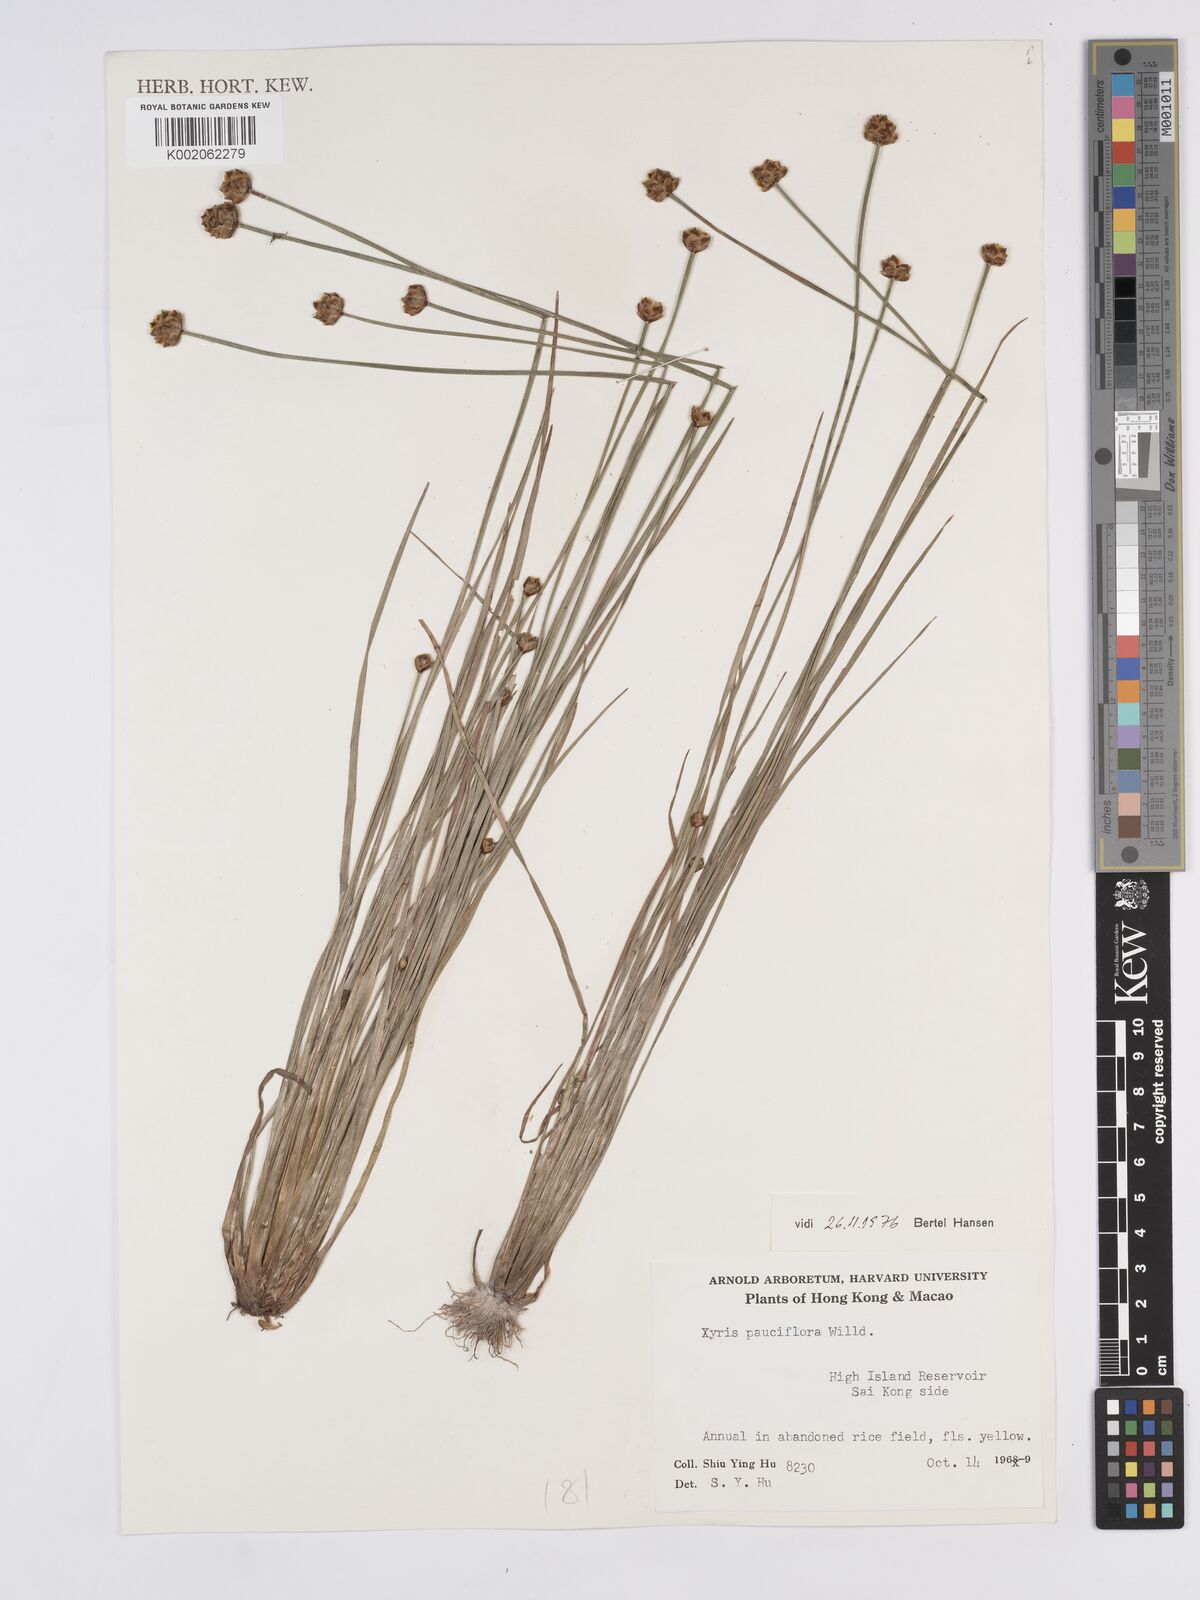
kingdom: Plantae
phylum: Tracheophyta
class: Liliopsida
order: Poales
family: Xyridaceae
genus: Xyris
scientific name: Xyris pauciflora
